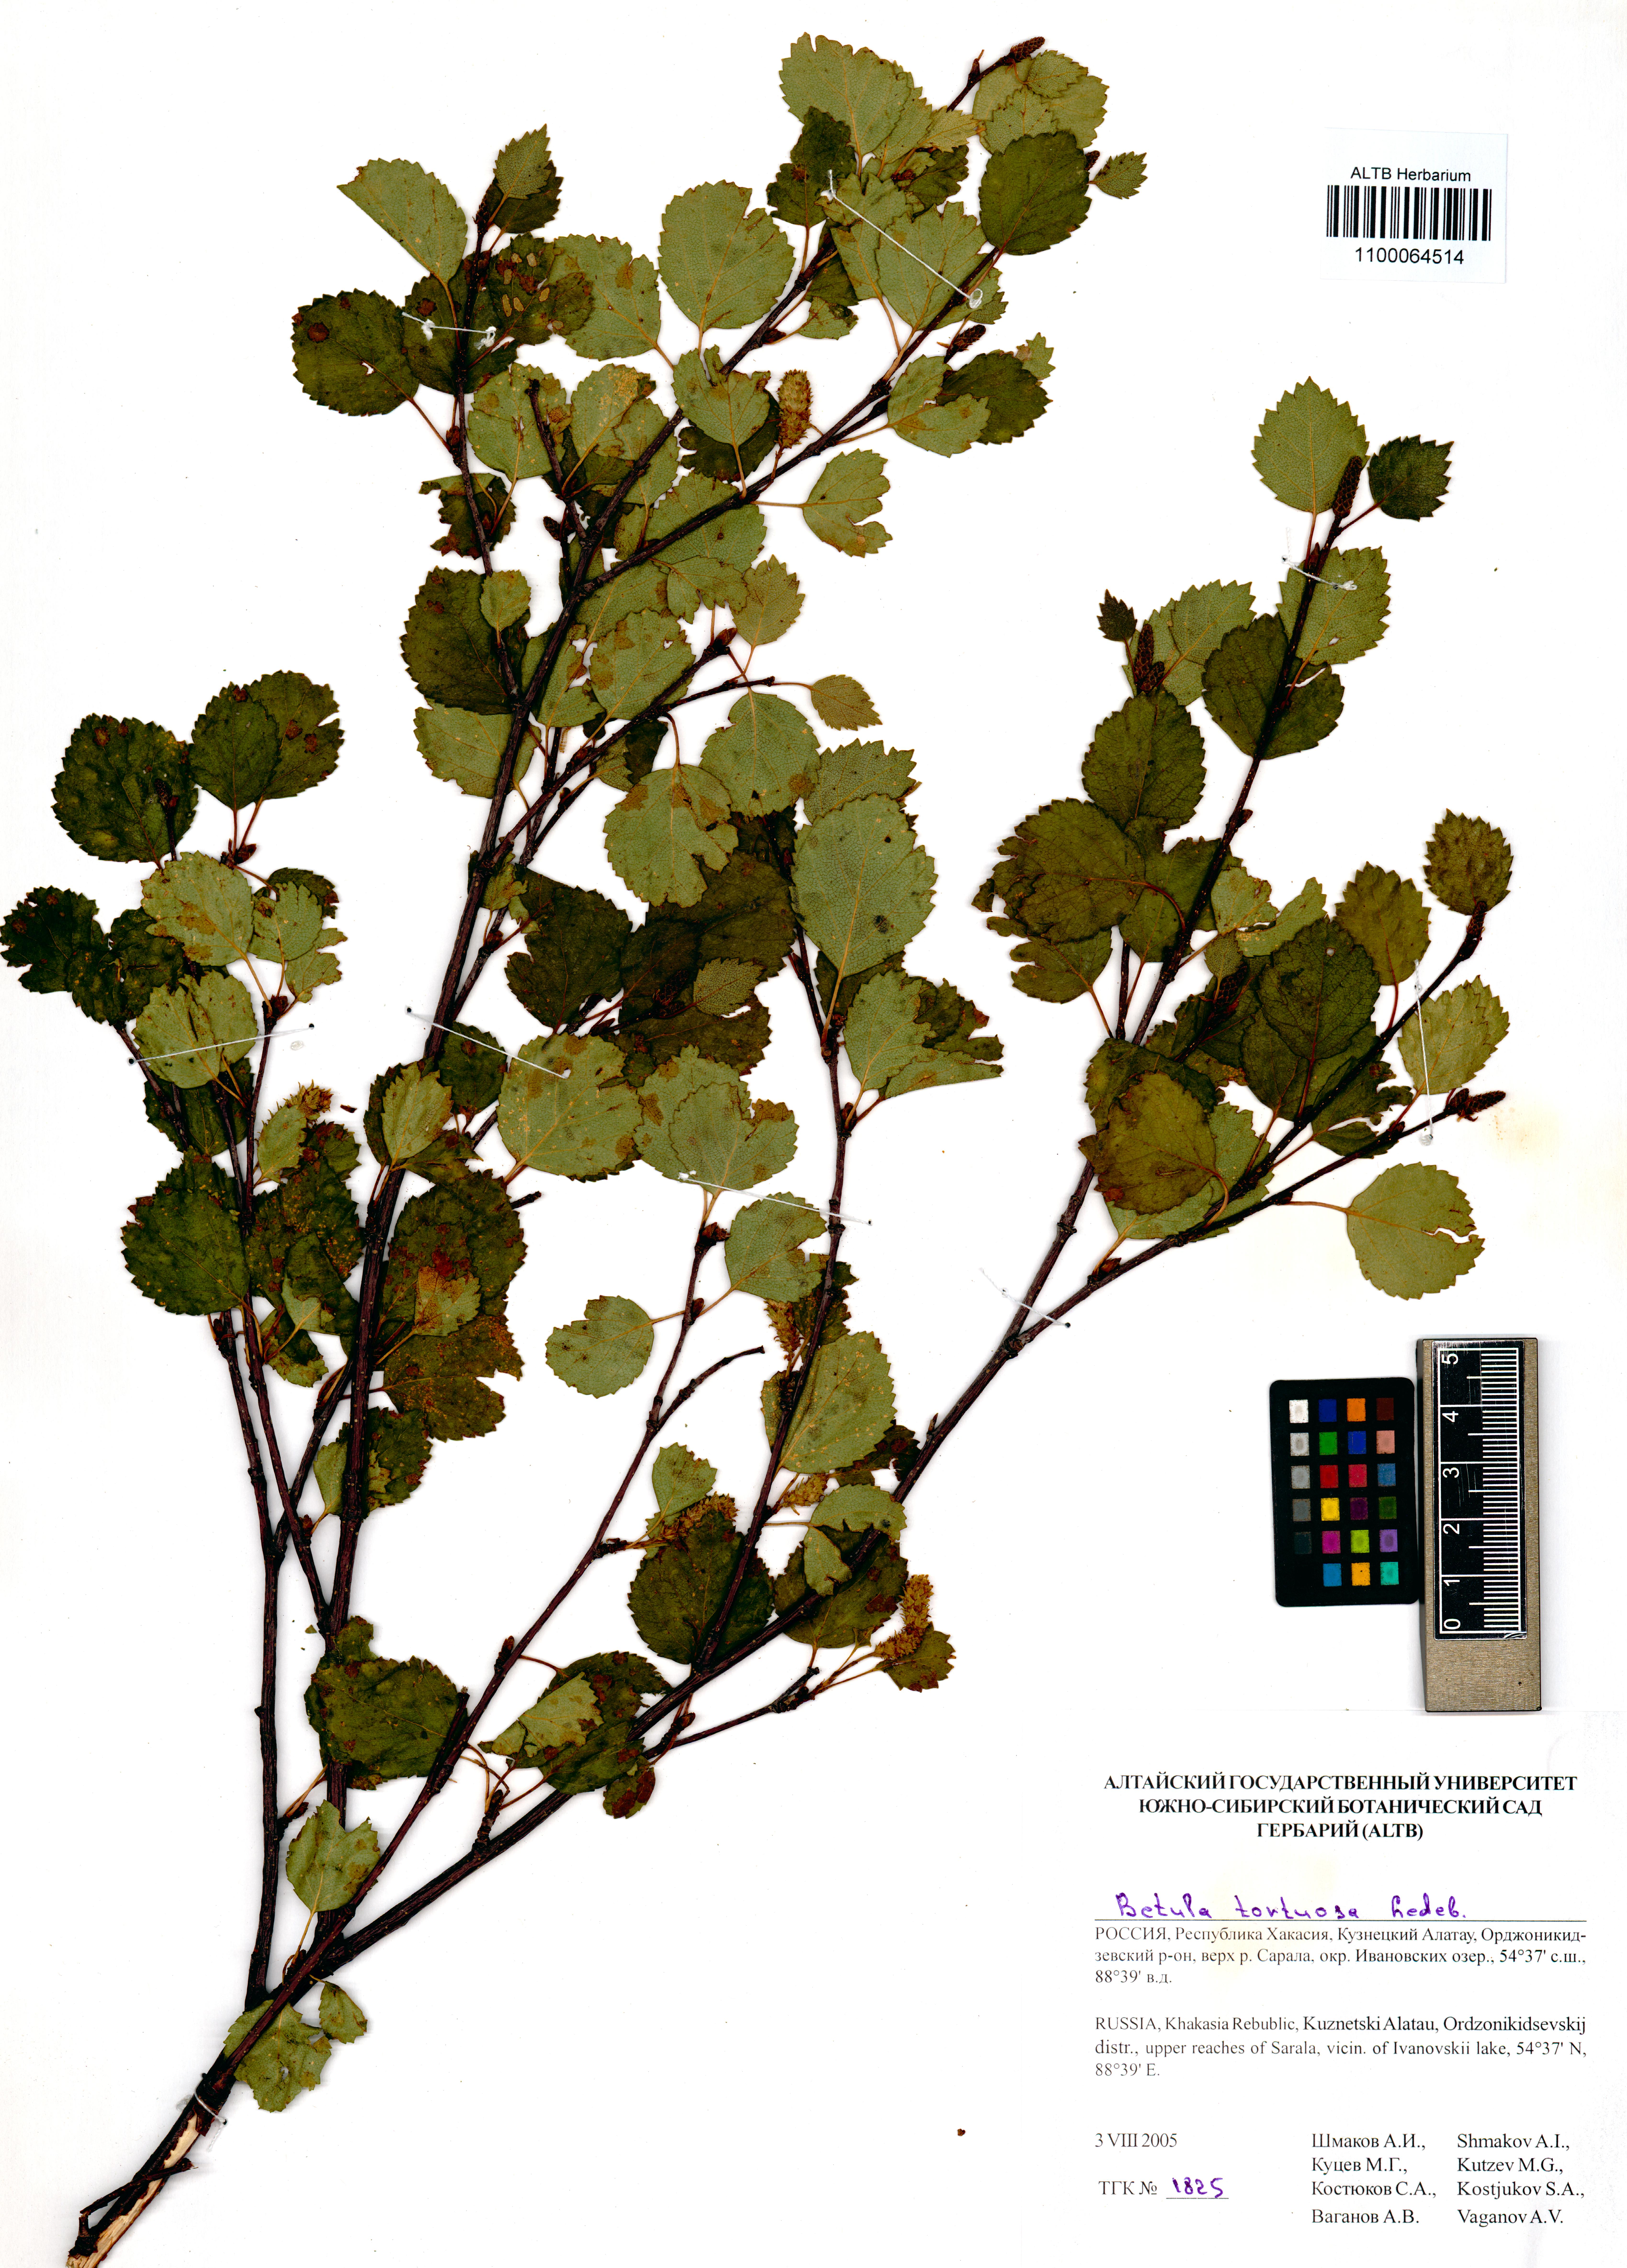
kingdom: Plantae
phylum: Tracheophyta
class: Magnoliopsida
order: Fagales
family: Betulaceae
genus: Betula
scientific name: Betula pubescens
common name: Downy birch
